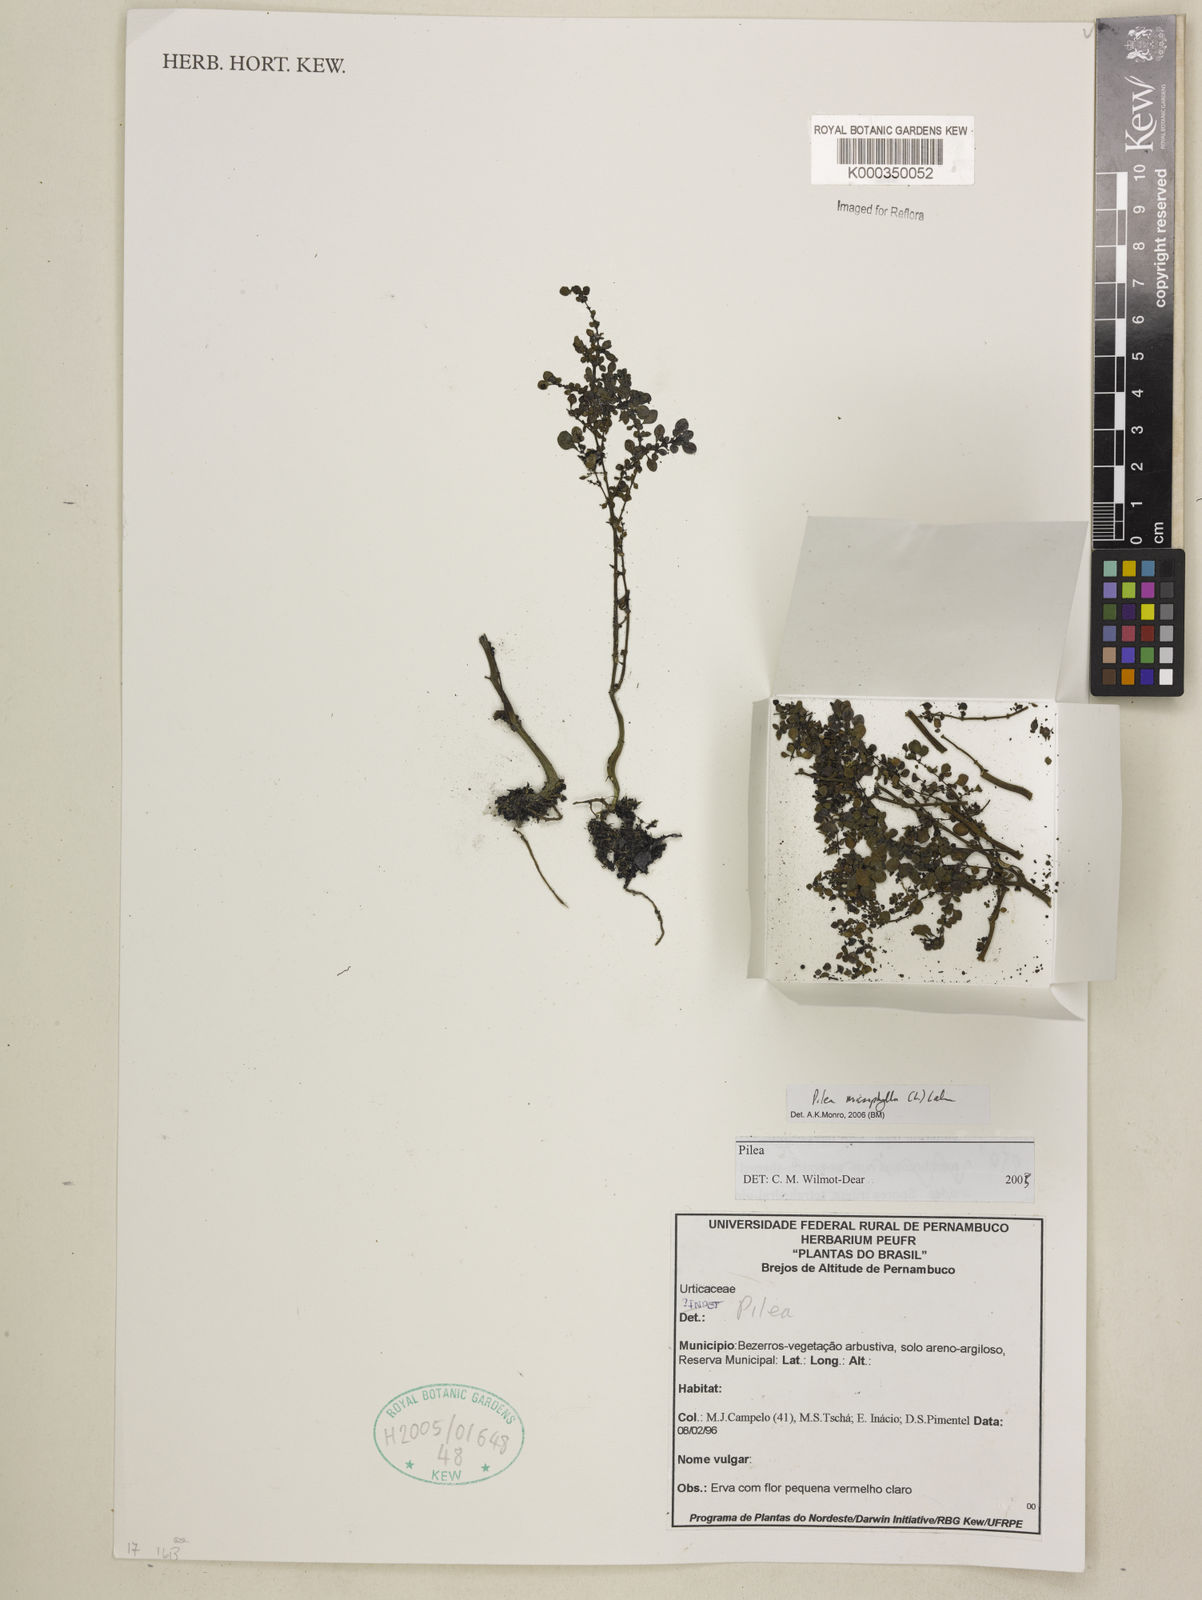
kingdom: Plantae
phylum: Tracheophyta
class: Magnoliopsida
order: Rosales
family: Urticaceae
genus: Pilea
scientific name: Pilea microphylla
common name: Artillery-plant
